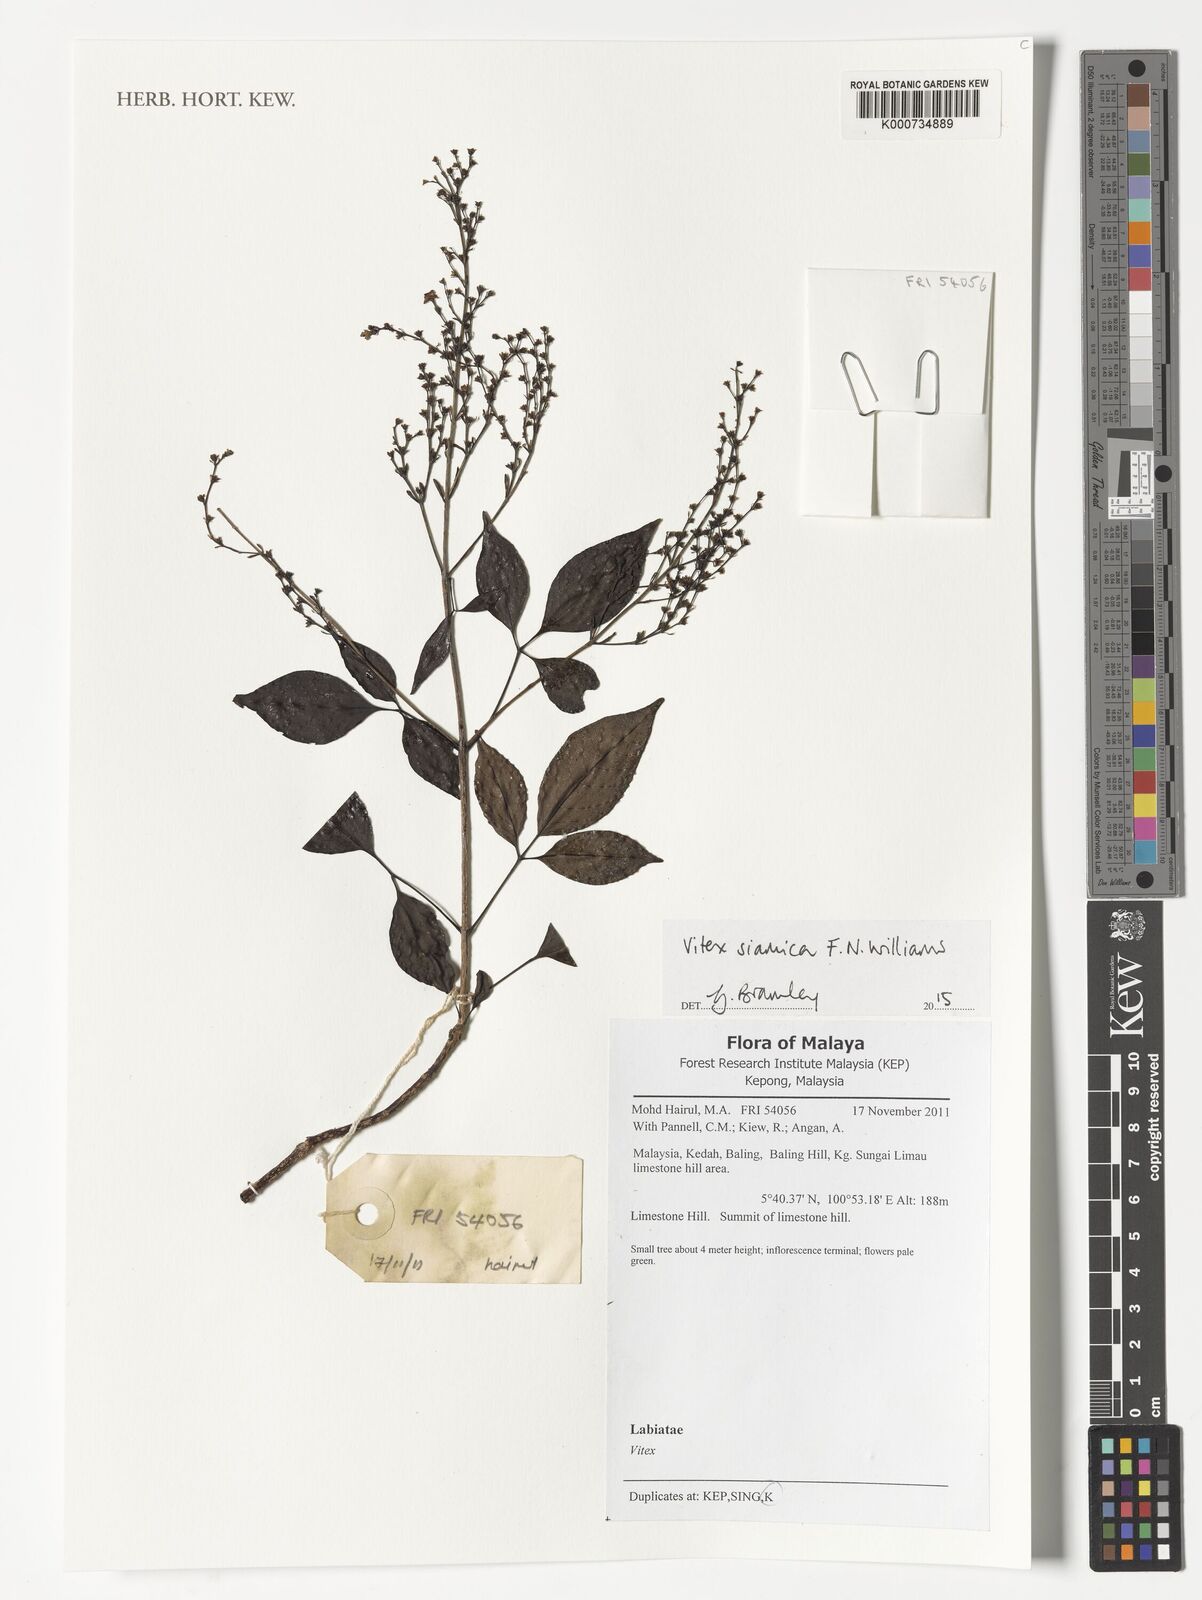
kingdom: Plantae
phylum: Tracheophyta
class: Magnoliopsida
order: Lamiales
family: Lamiaceae
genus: Vitex
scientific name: Vitex siamica
